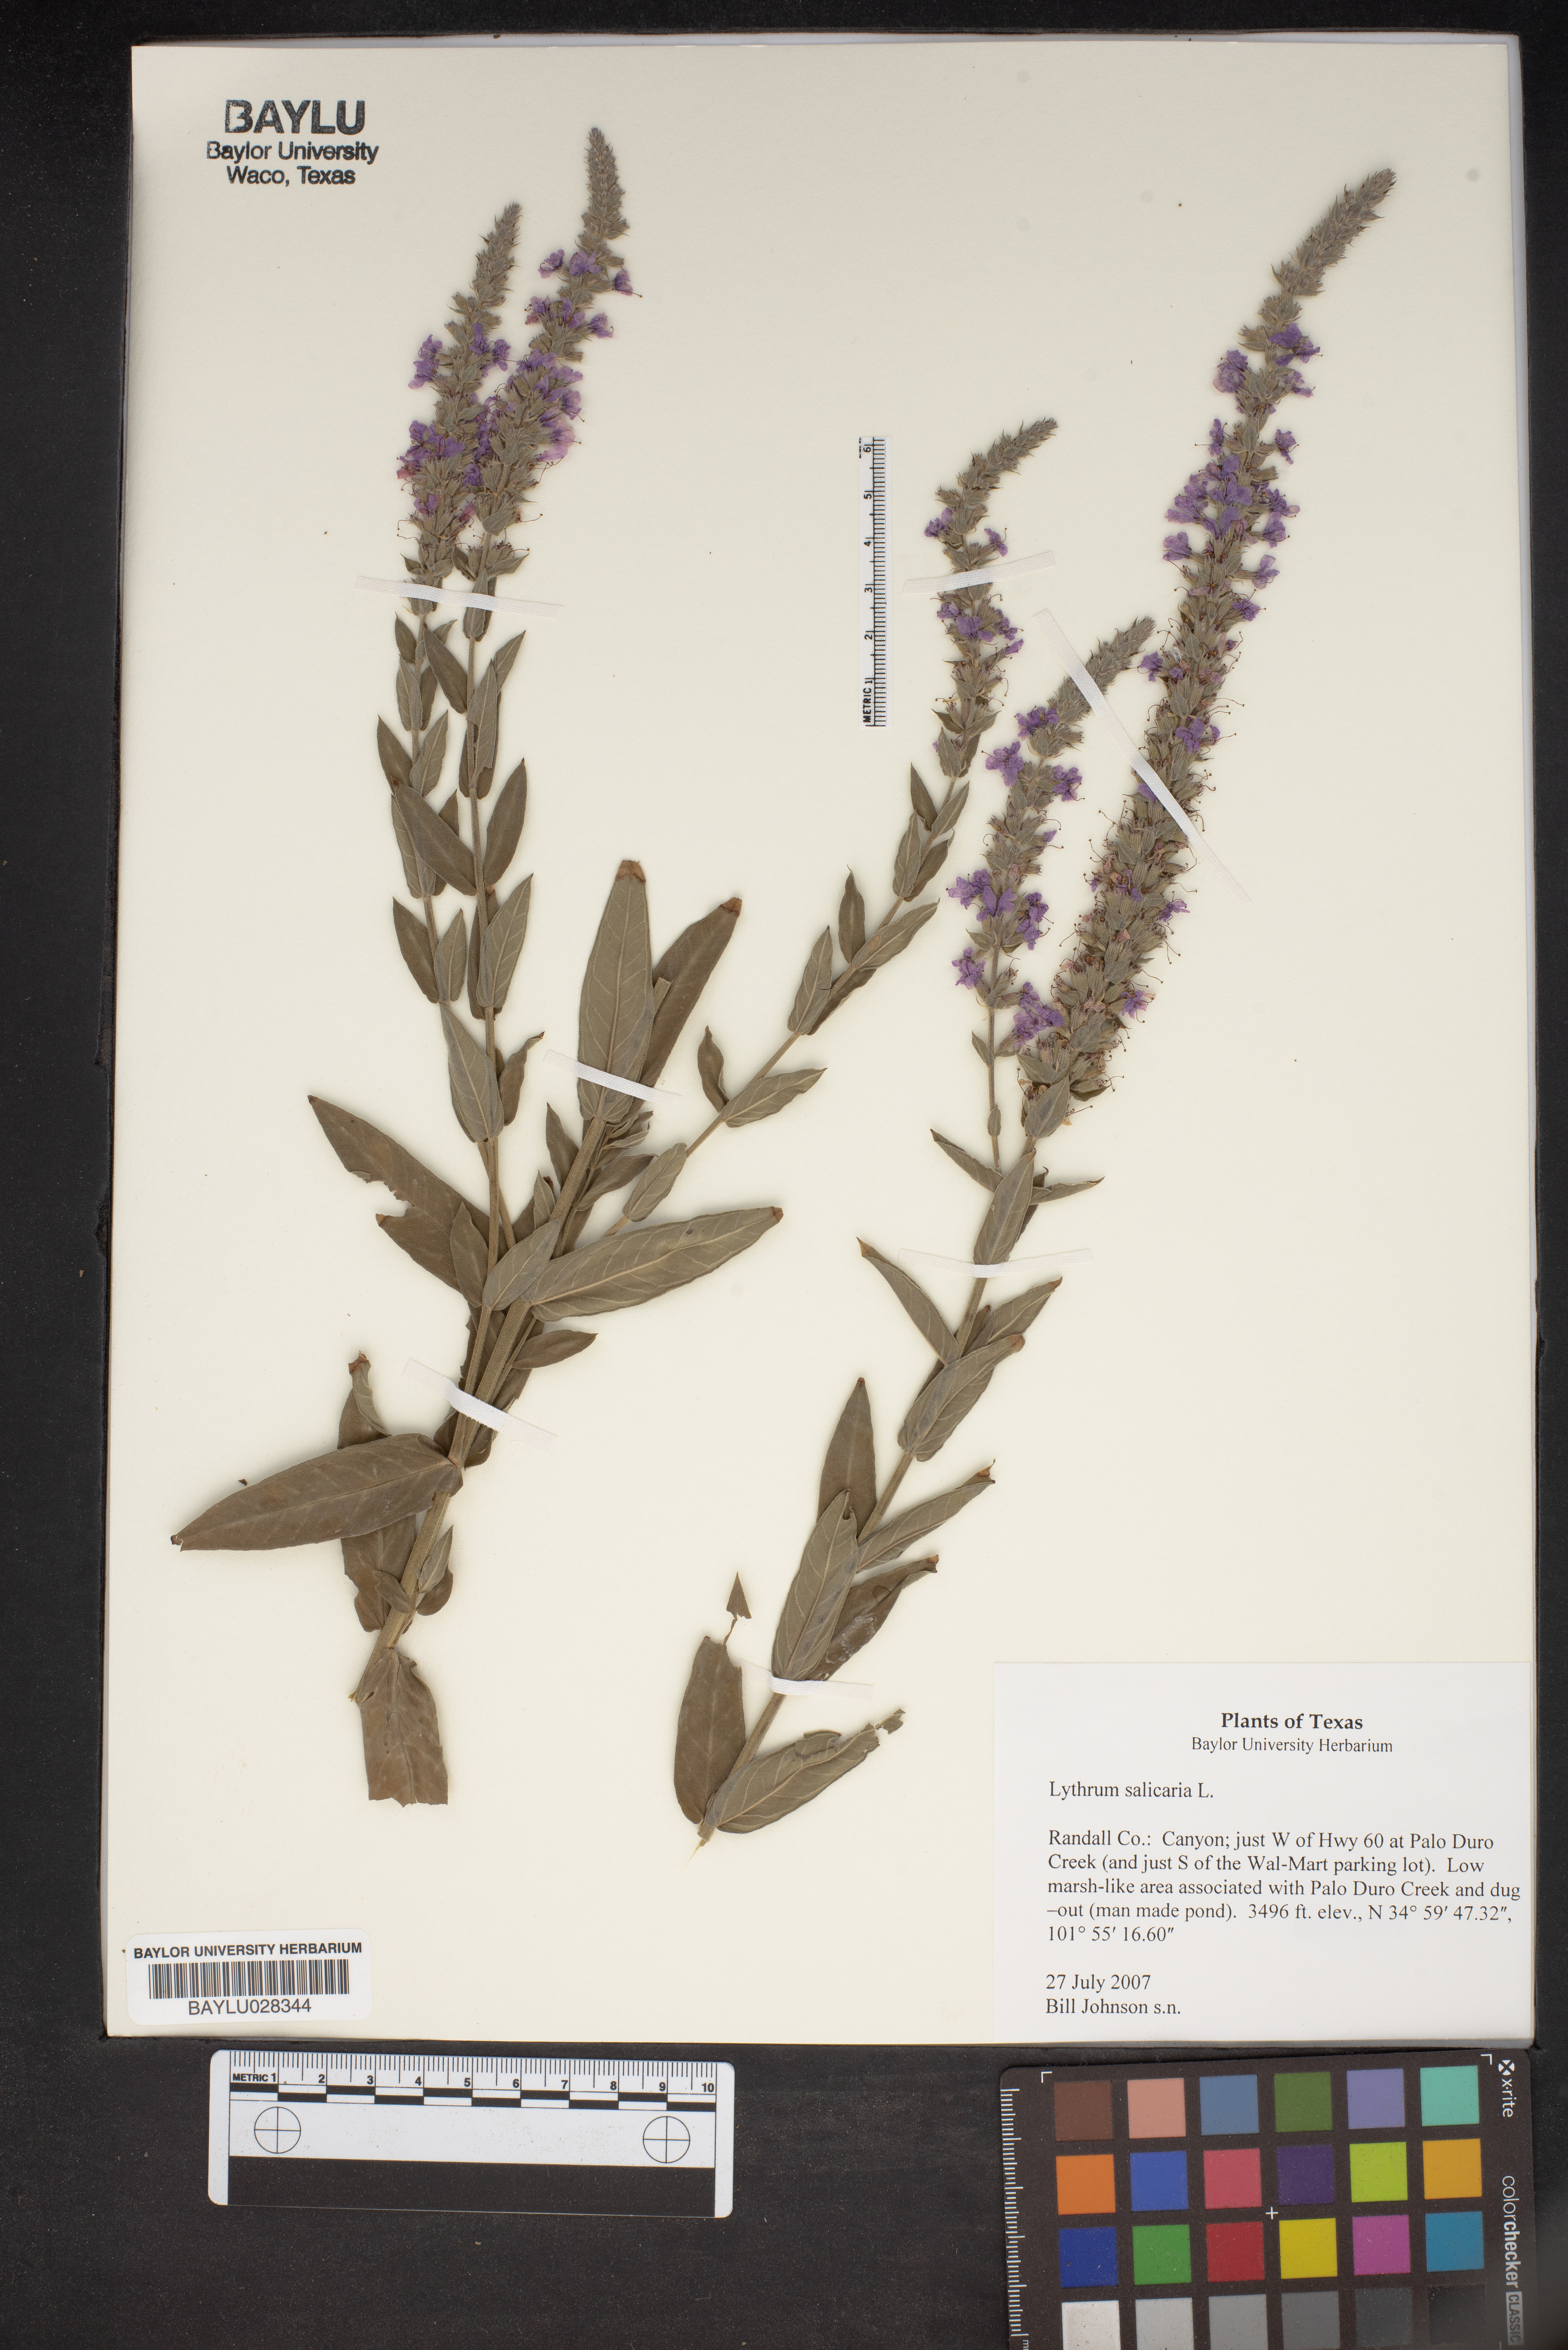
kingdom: Plantae
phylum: Tracheophyta
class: Magnoliopsida
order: Myrtales
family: Lythraceae
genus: Lythrum
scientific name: Lythrum salicaria
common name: Purple loosestrife
